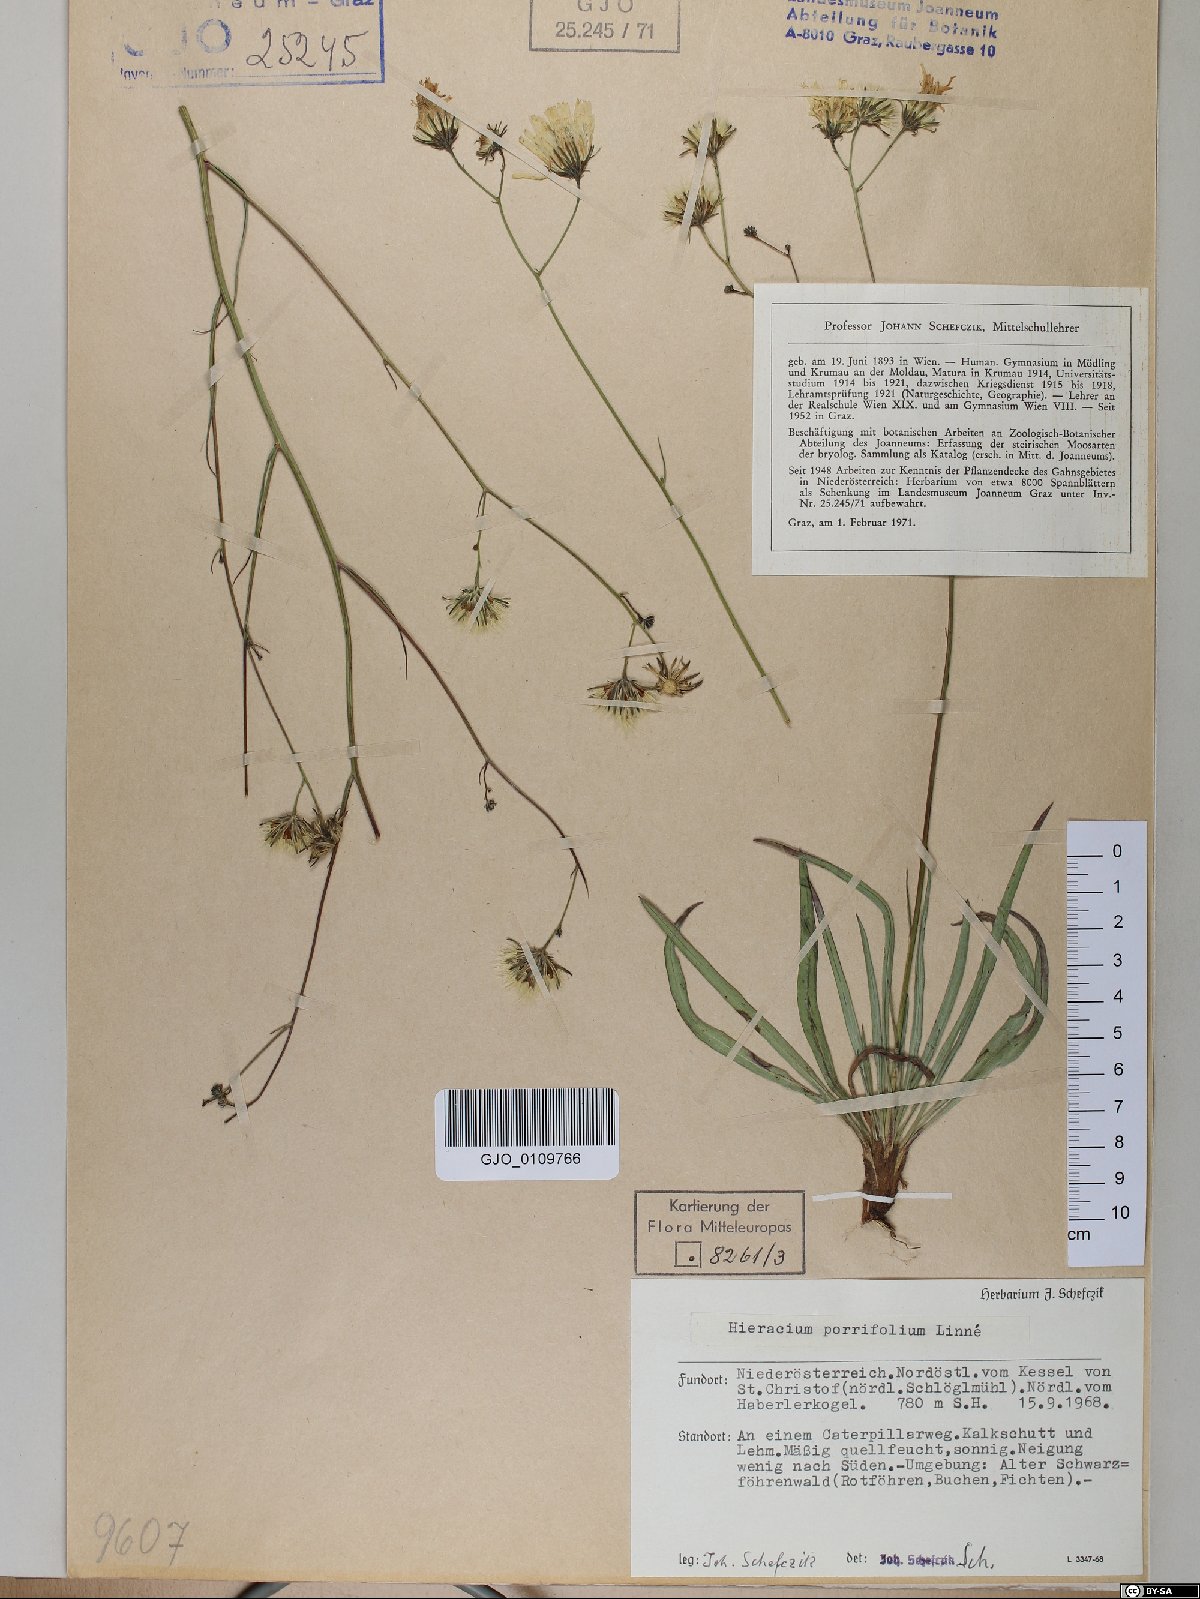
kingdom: Plantae
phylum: Tracheophyta
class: Magnoliopsida
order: Asterales
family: Asteraceae
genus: Hieracium
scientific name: Hieracium porrifolium
